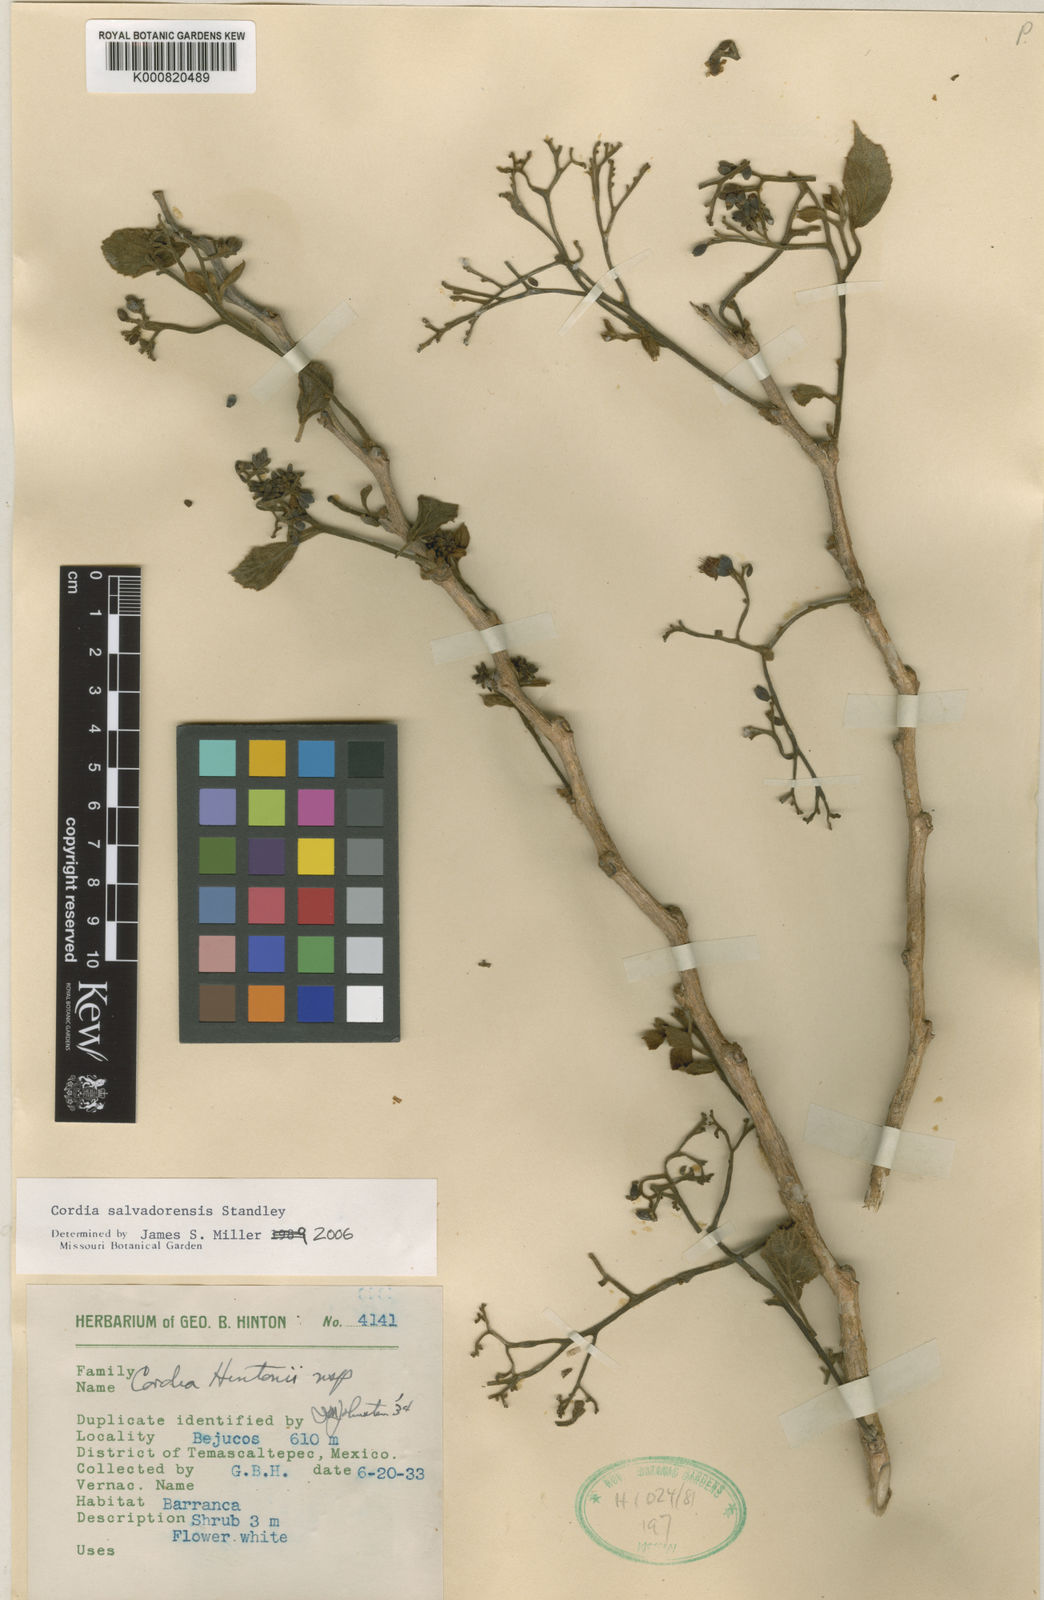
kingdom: Plantae
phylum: Tracheophyta
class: Magnoliopsida
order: Boraginales
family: Cordiaceae
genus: Cordia
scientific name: Cordia salvadorensis
